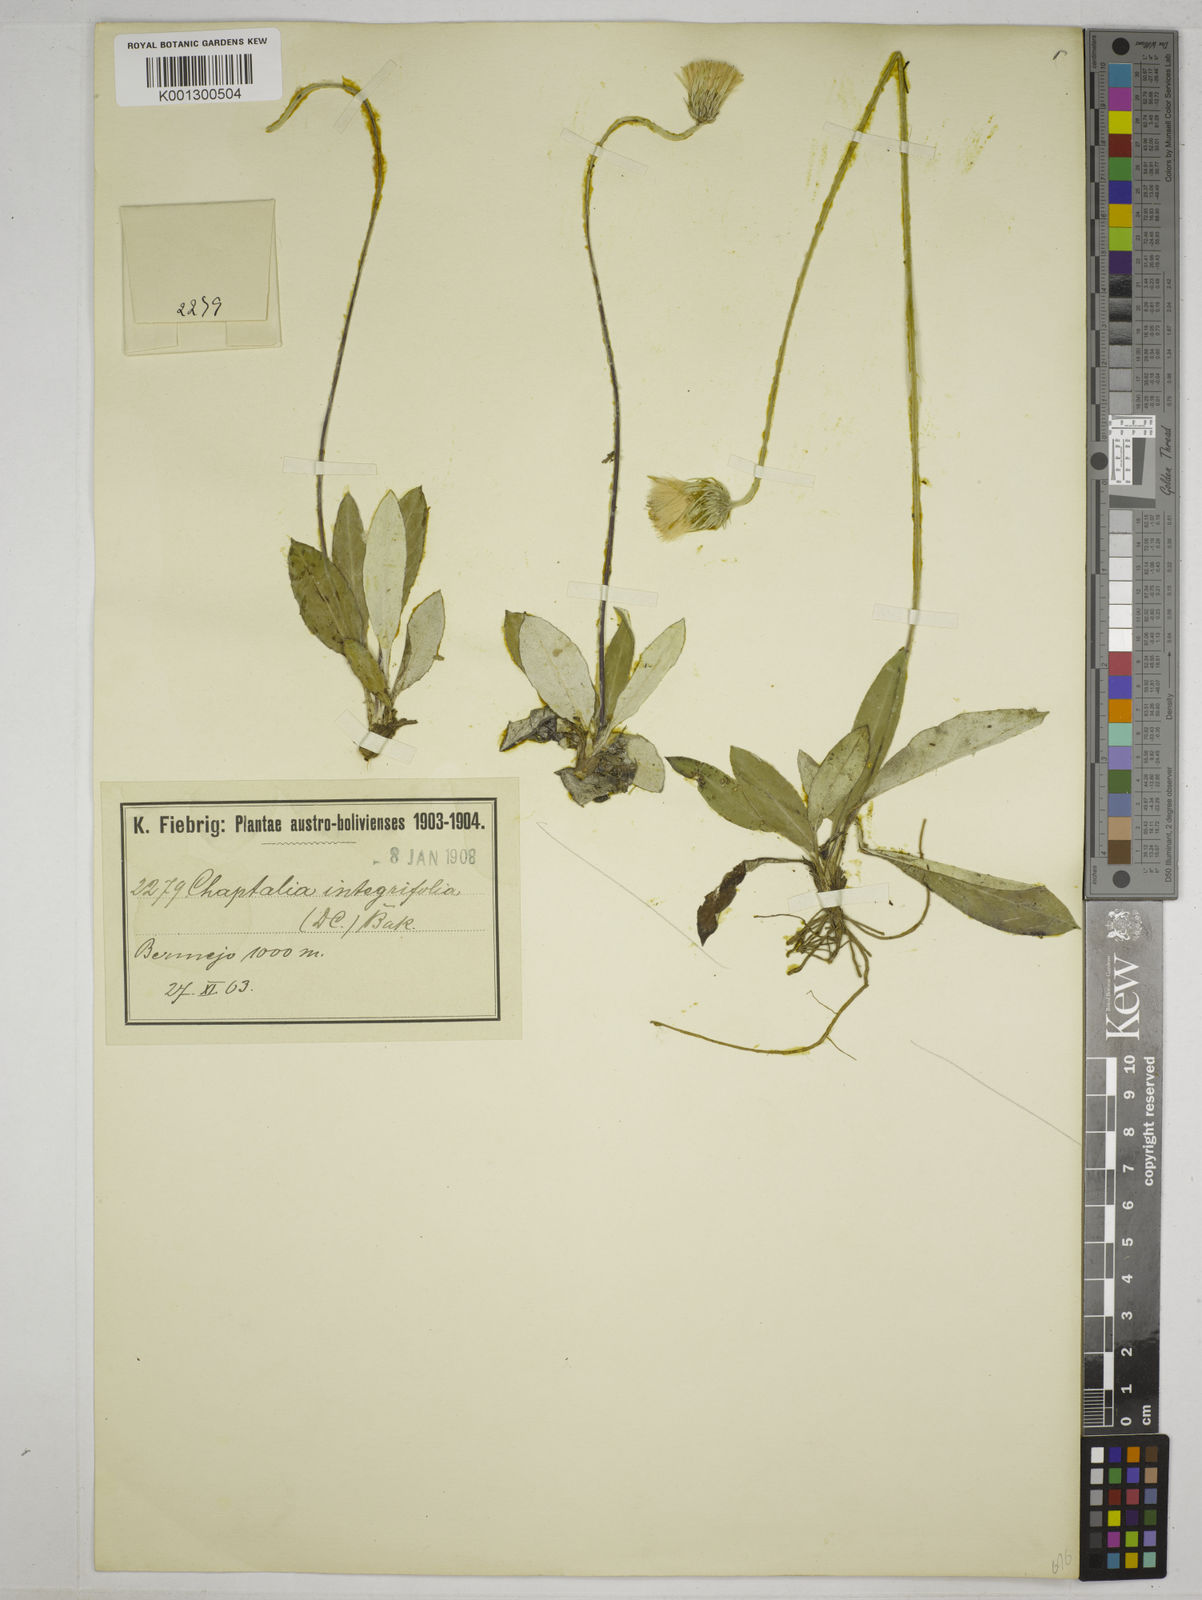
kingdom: Plantae
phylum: Tracheophyta
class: Magnoliopsida
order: Asterales
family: Asteraceae
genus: Chaptalia
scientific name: Chaptalia albicans
